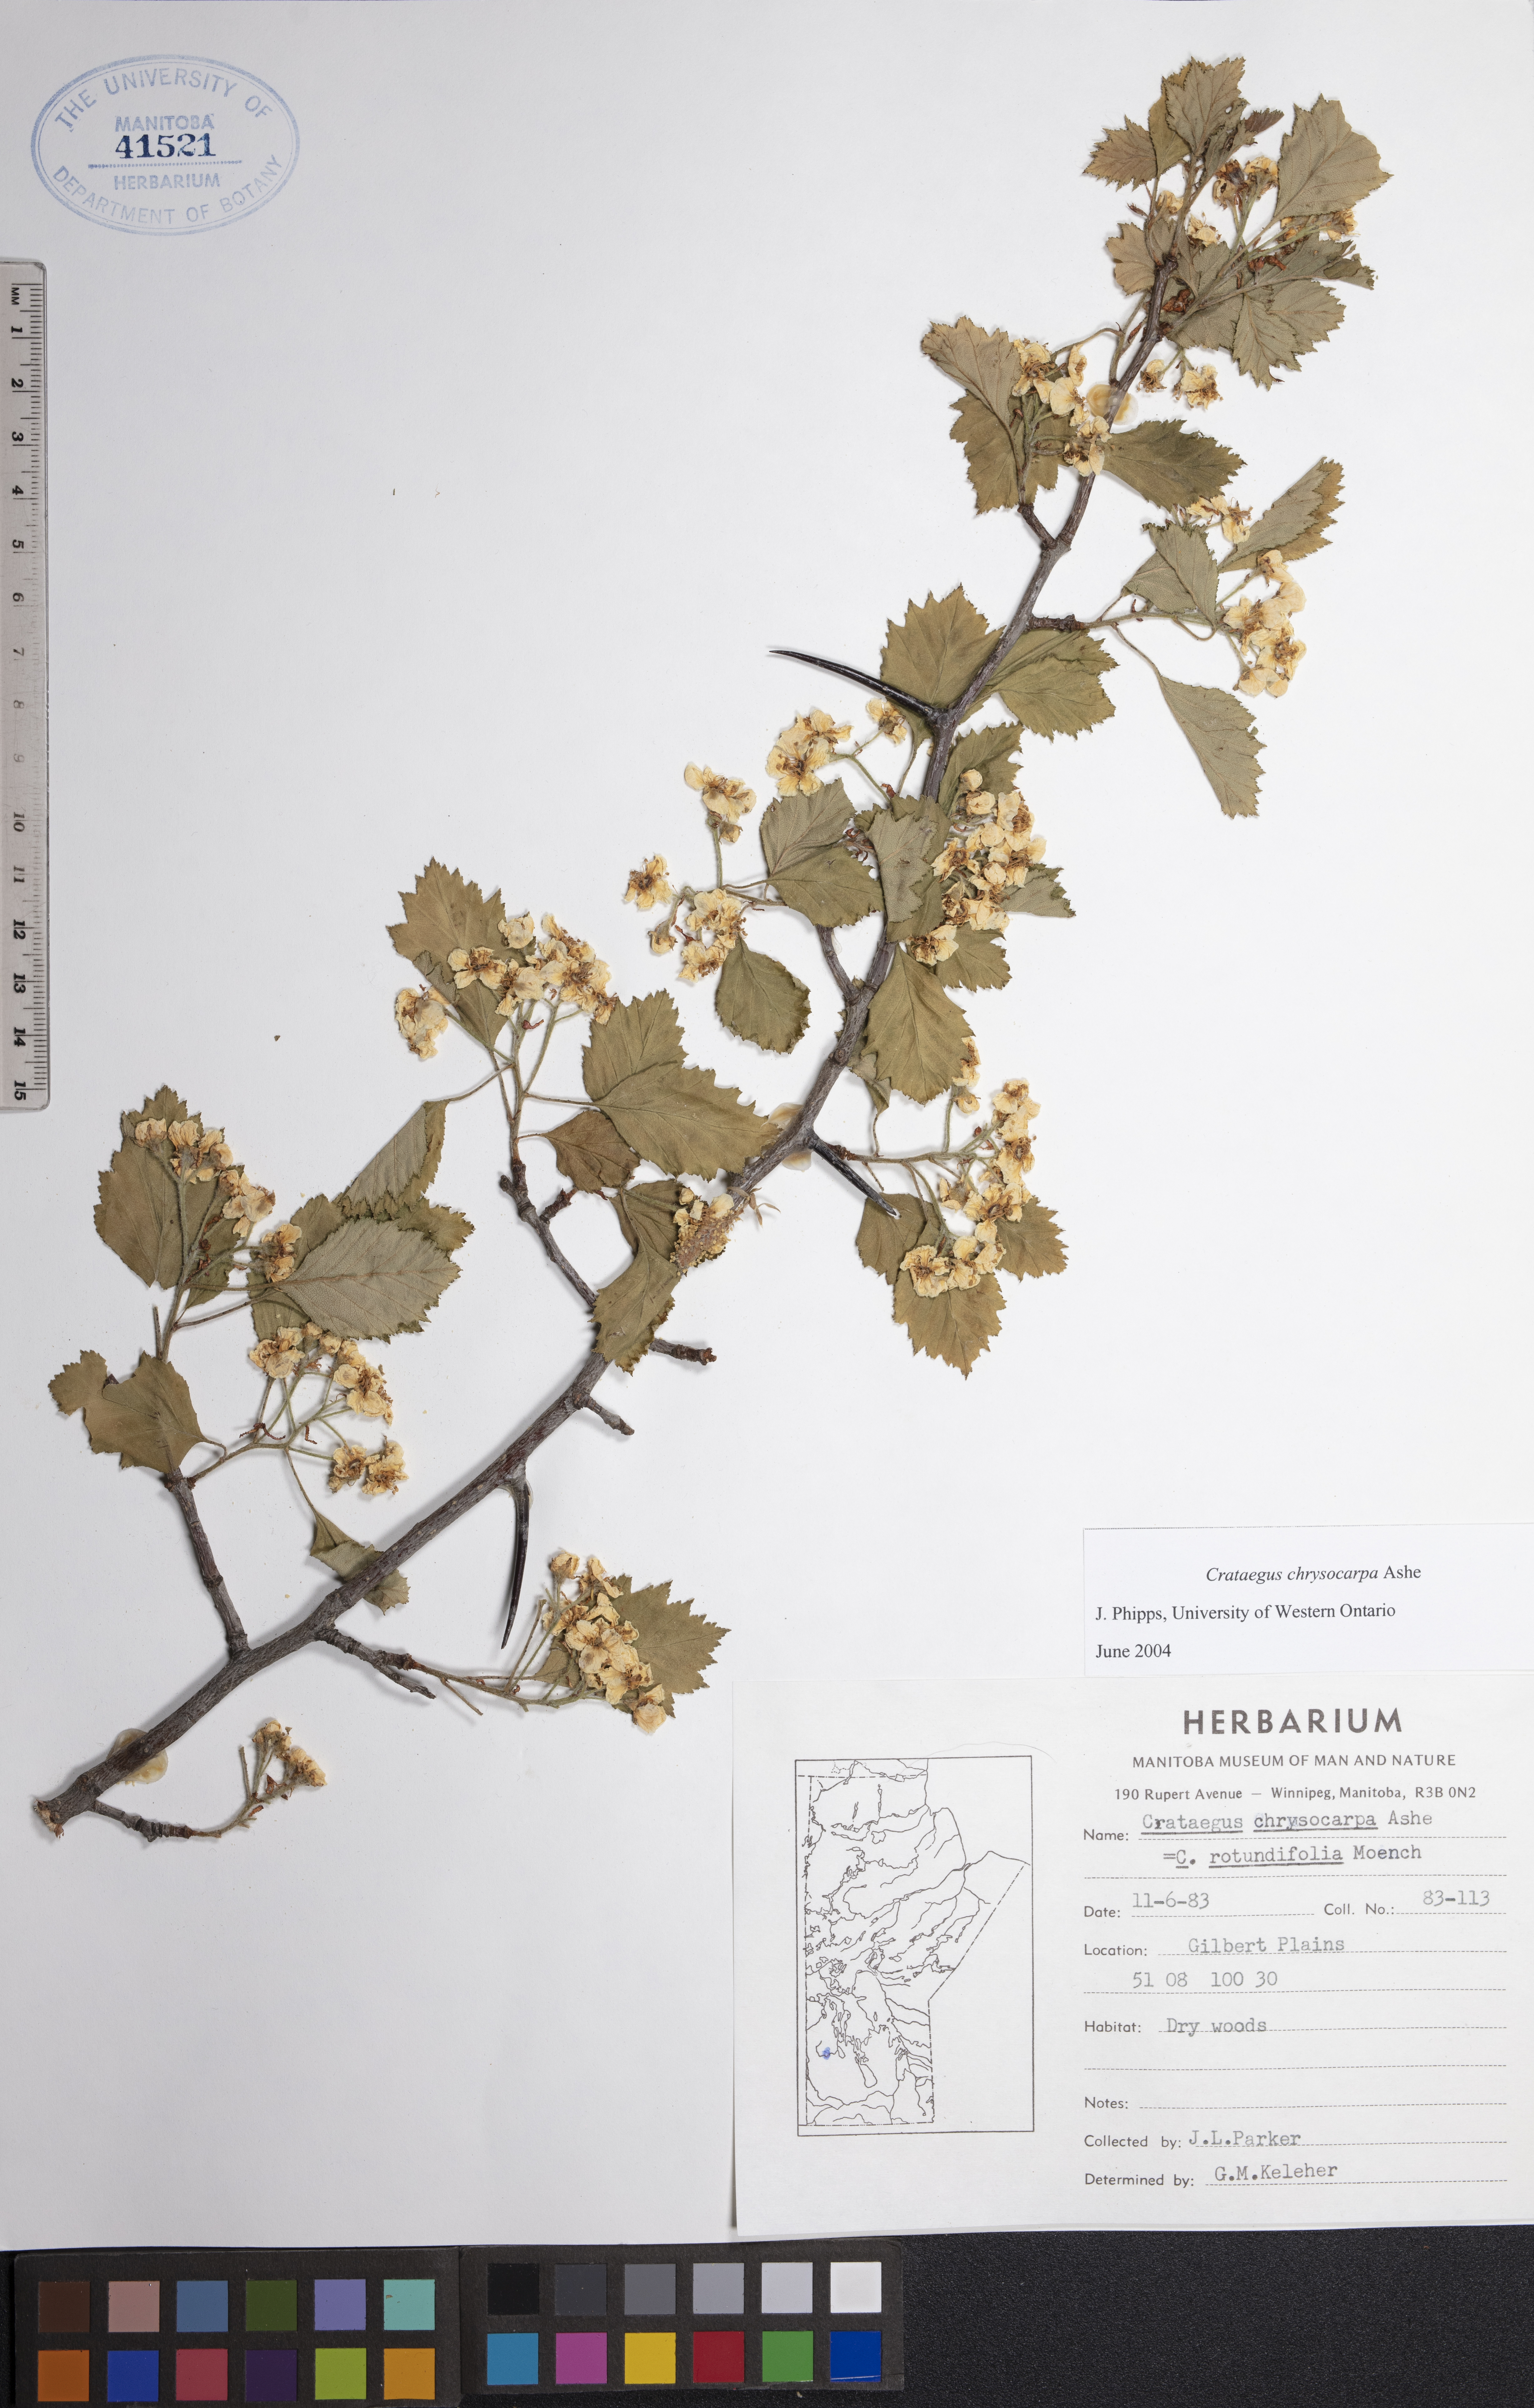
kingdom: Plantae
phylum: Tracheophyta
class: Magnoliopsida
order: Rosales
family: Rosaceae
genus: Crataegus
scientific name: Crataegus chrysocarpa
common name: Fire-berry hawthorn
